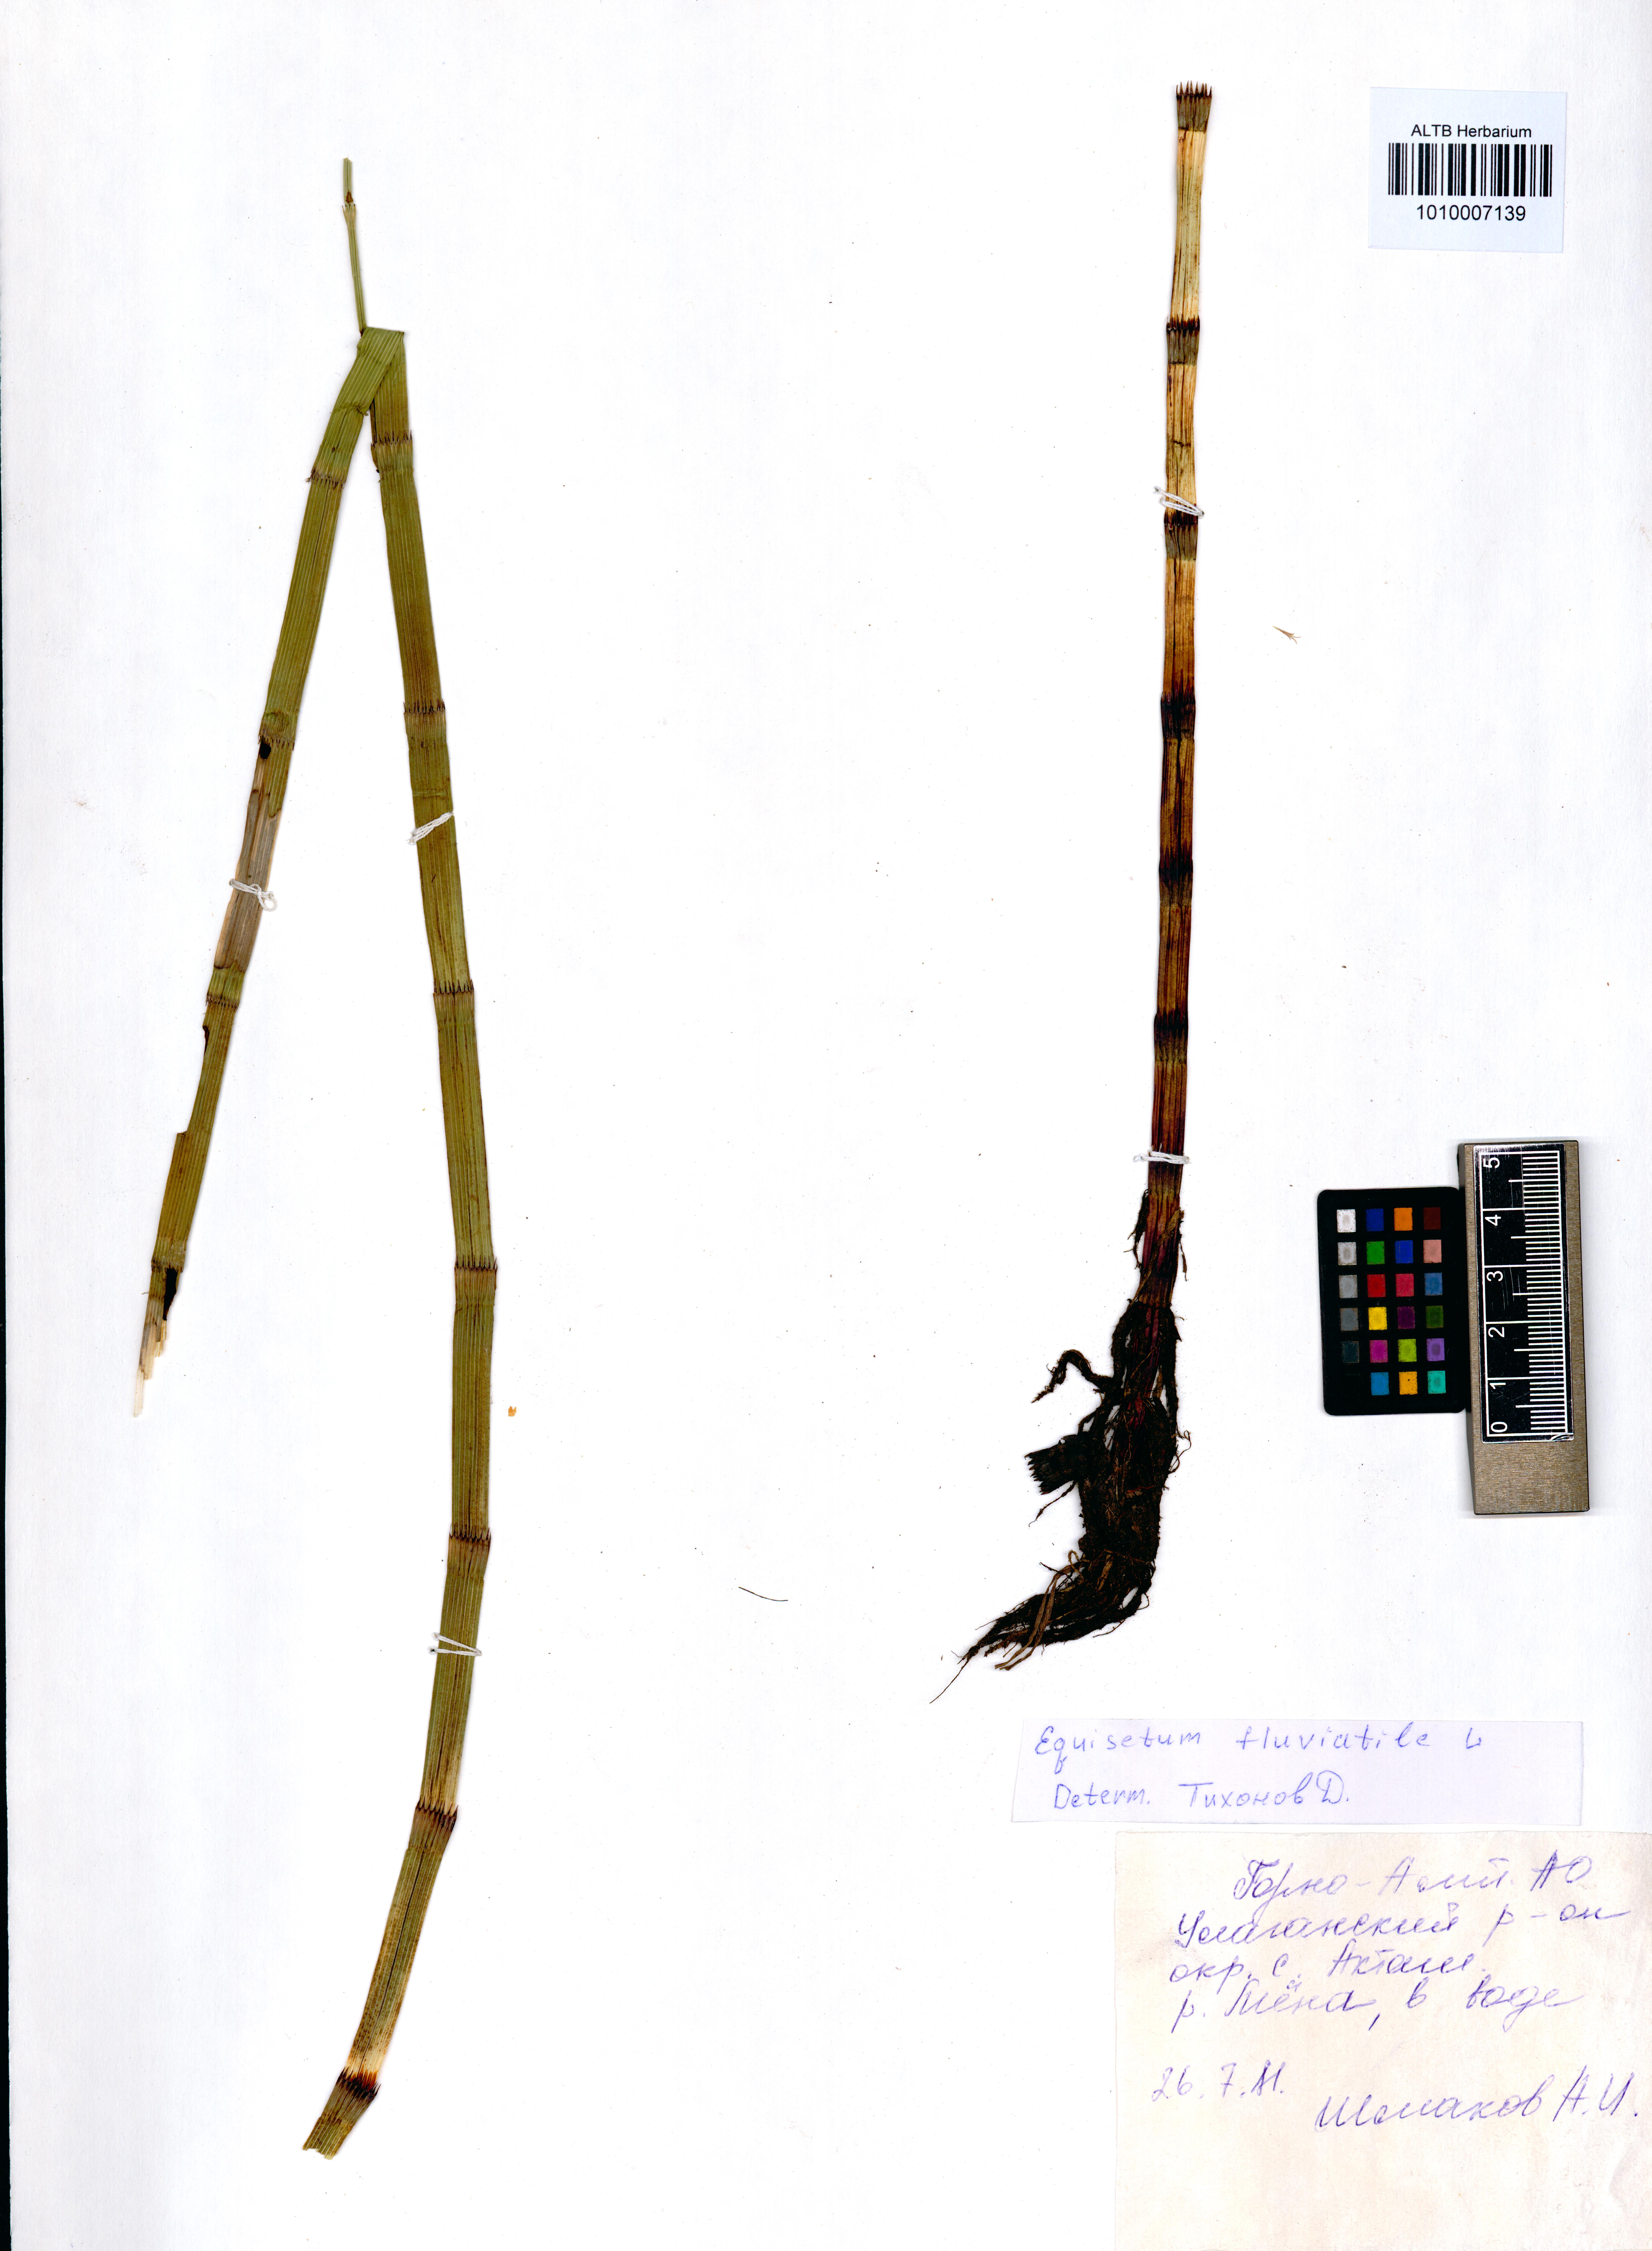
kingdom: Plantae
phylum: Tracheophyta
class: Polypodiopsida
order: Equisetales
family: Equisetaceae
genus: Equisetum
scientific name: Equisetum fluviatile
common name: Water horsetail
